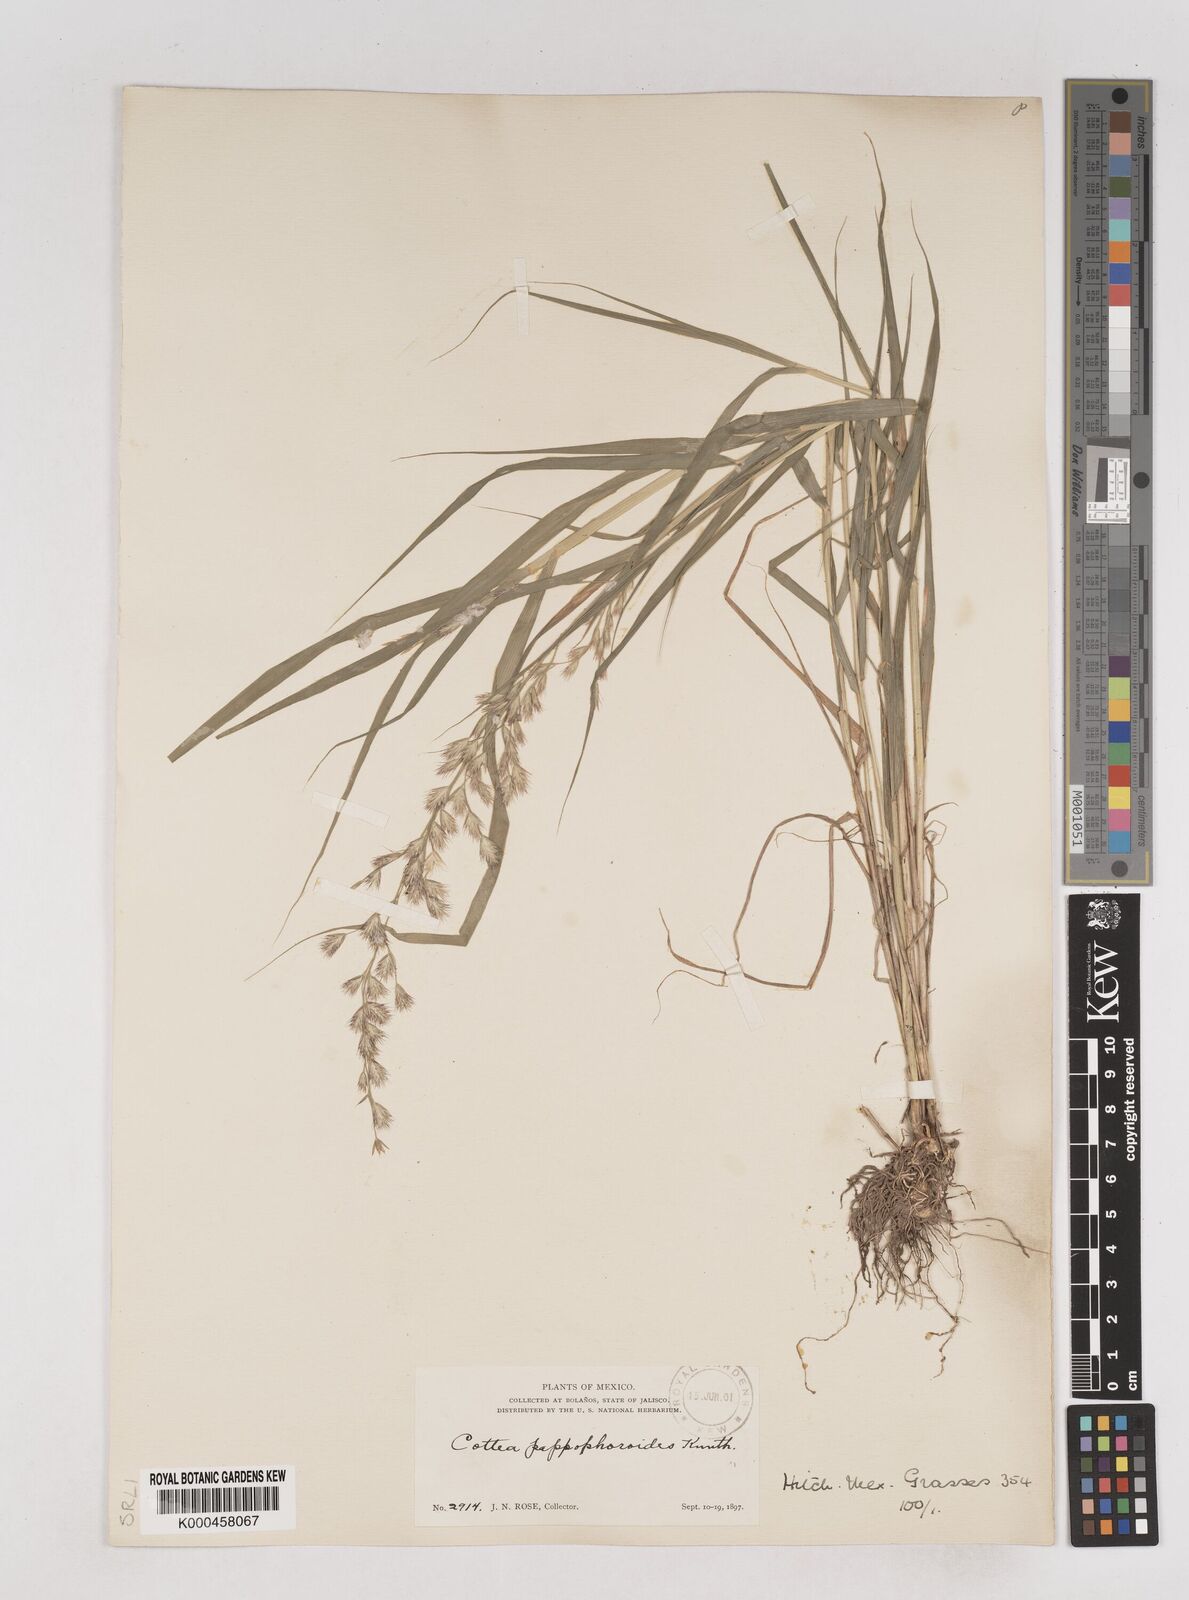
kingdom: Plantae
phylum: Tracheophyta
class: Liliopsida
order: Poales
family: Poaceae
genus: Cottea
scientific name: Cottea
